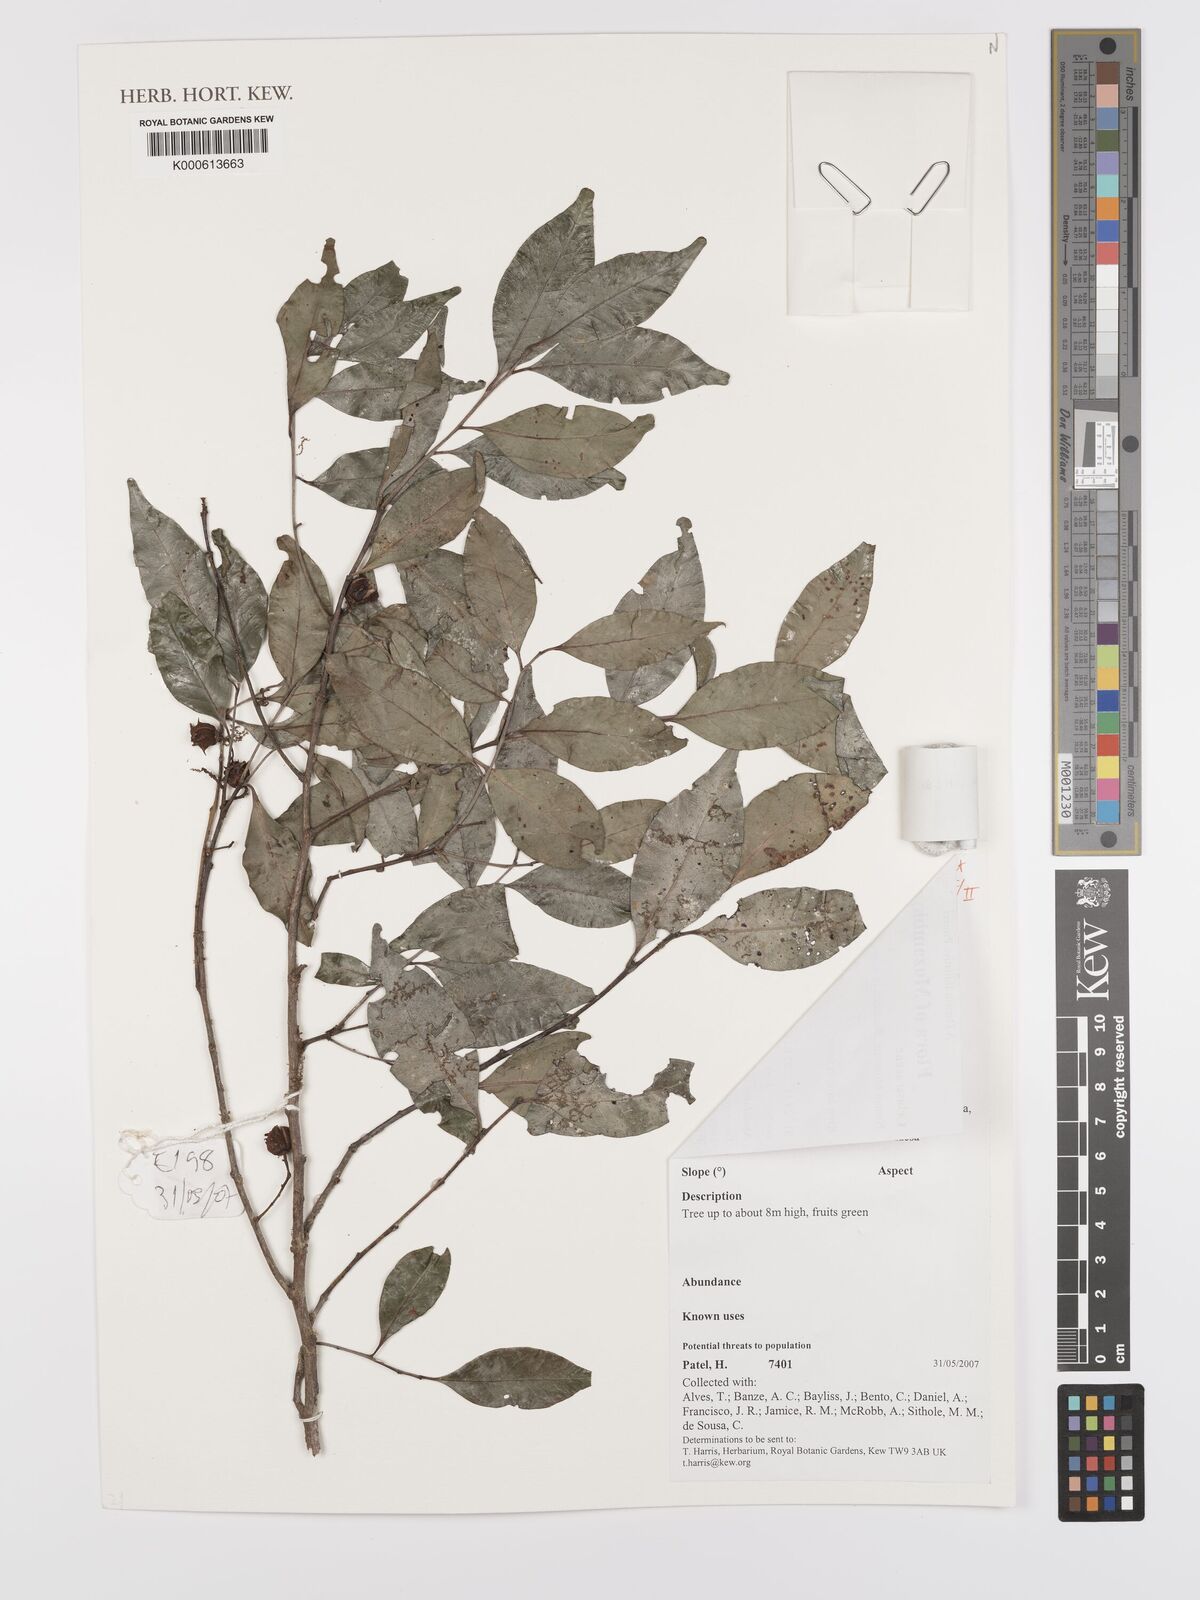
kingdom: Plantae
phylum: Tracheophyta
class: Magnoliopsida
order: Celastrales
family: Celastraceae
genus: Pterocelastrus
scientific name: Pterocelastrus echinatus
